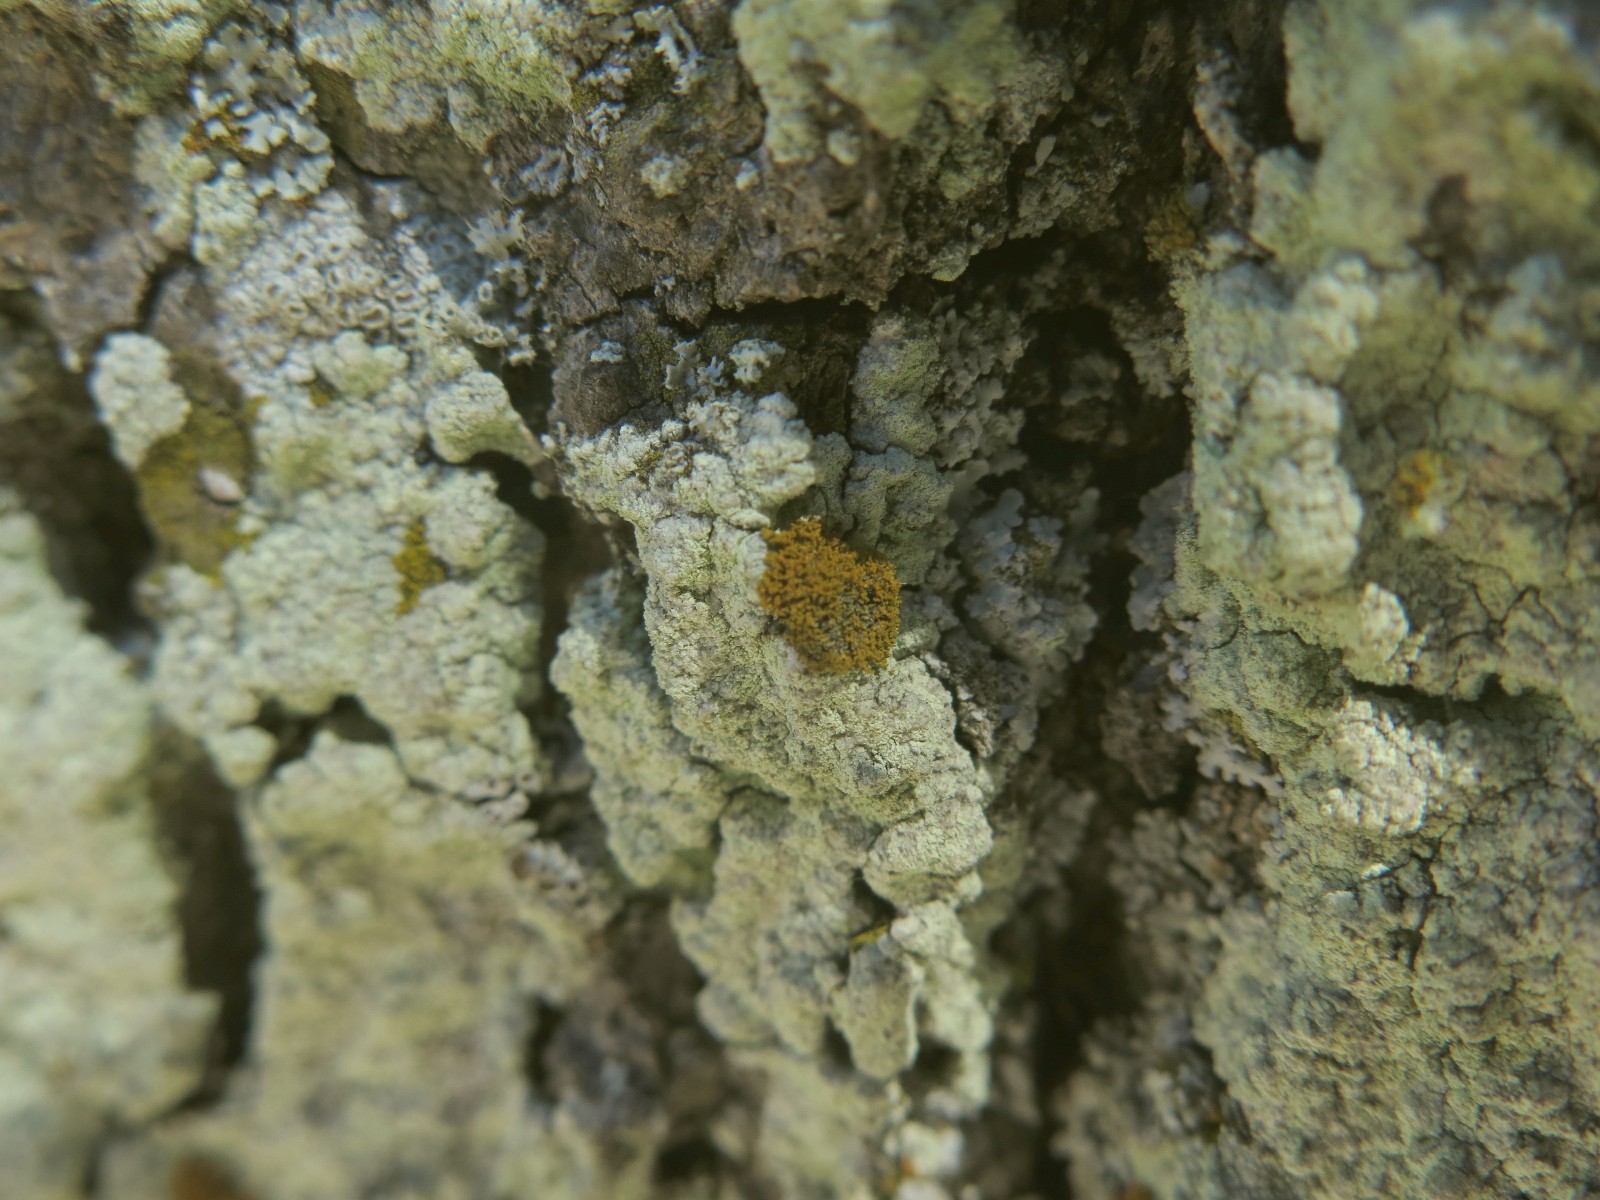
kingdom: Fungi
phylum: Ascomycota
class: Lecanoromycetes
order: Teloschistales
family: Teloschistaceae
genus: Polycauliona
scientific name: Polycauliona candelaria
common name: tue-orangelav
